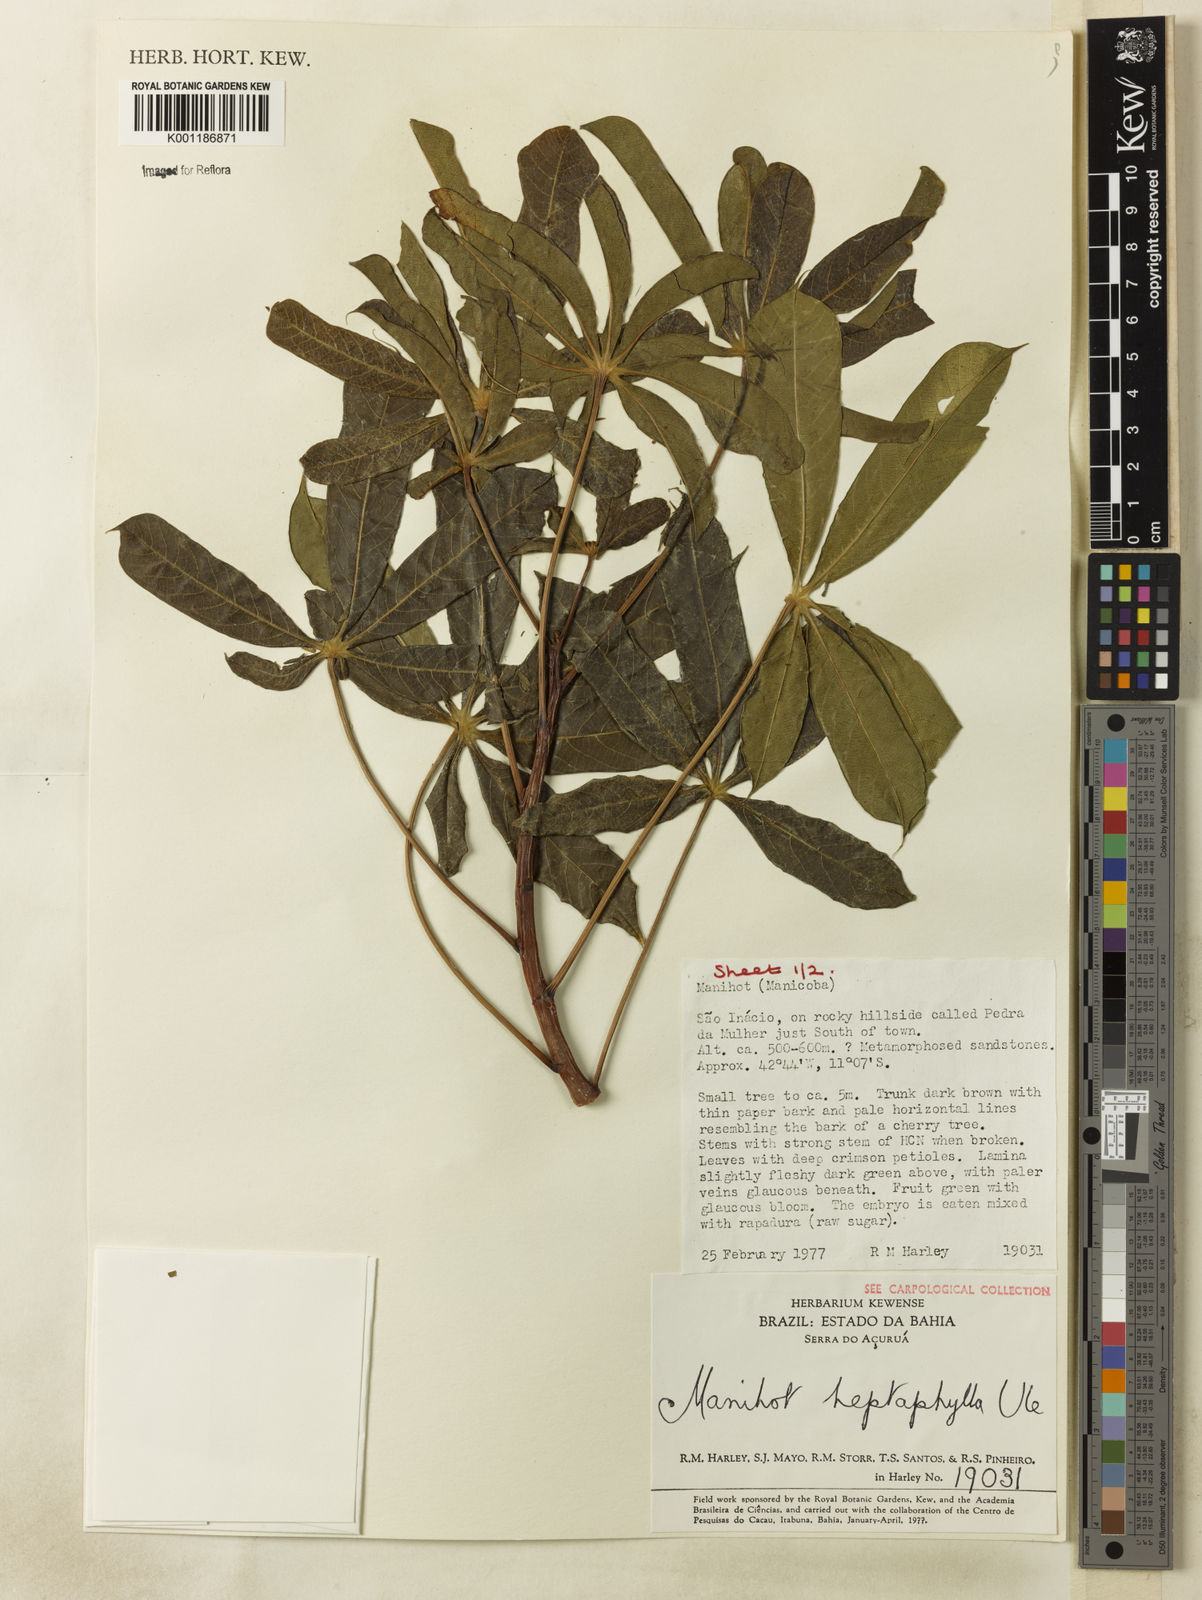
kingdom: Plantae
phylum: Tracheophyta
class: Magnoliopsida
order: Malpighiales
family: Euphorbiaceae
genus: Manihot
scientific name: Manihot heptaphylla
